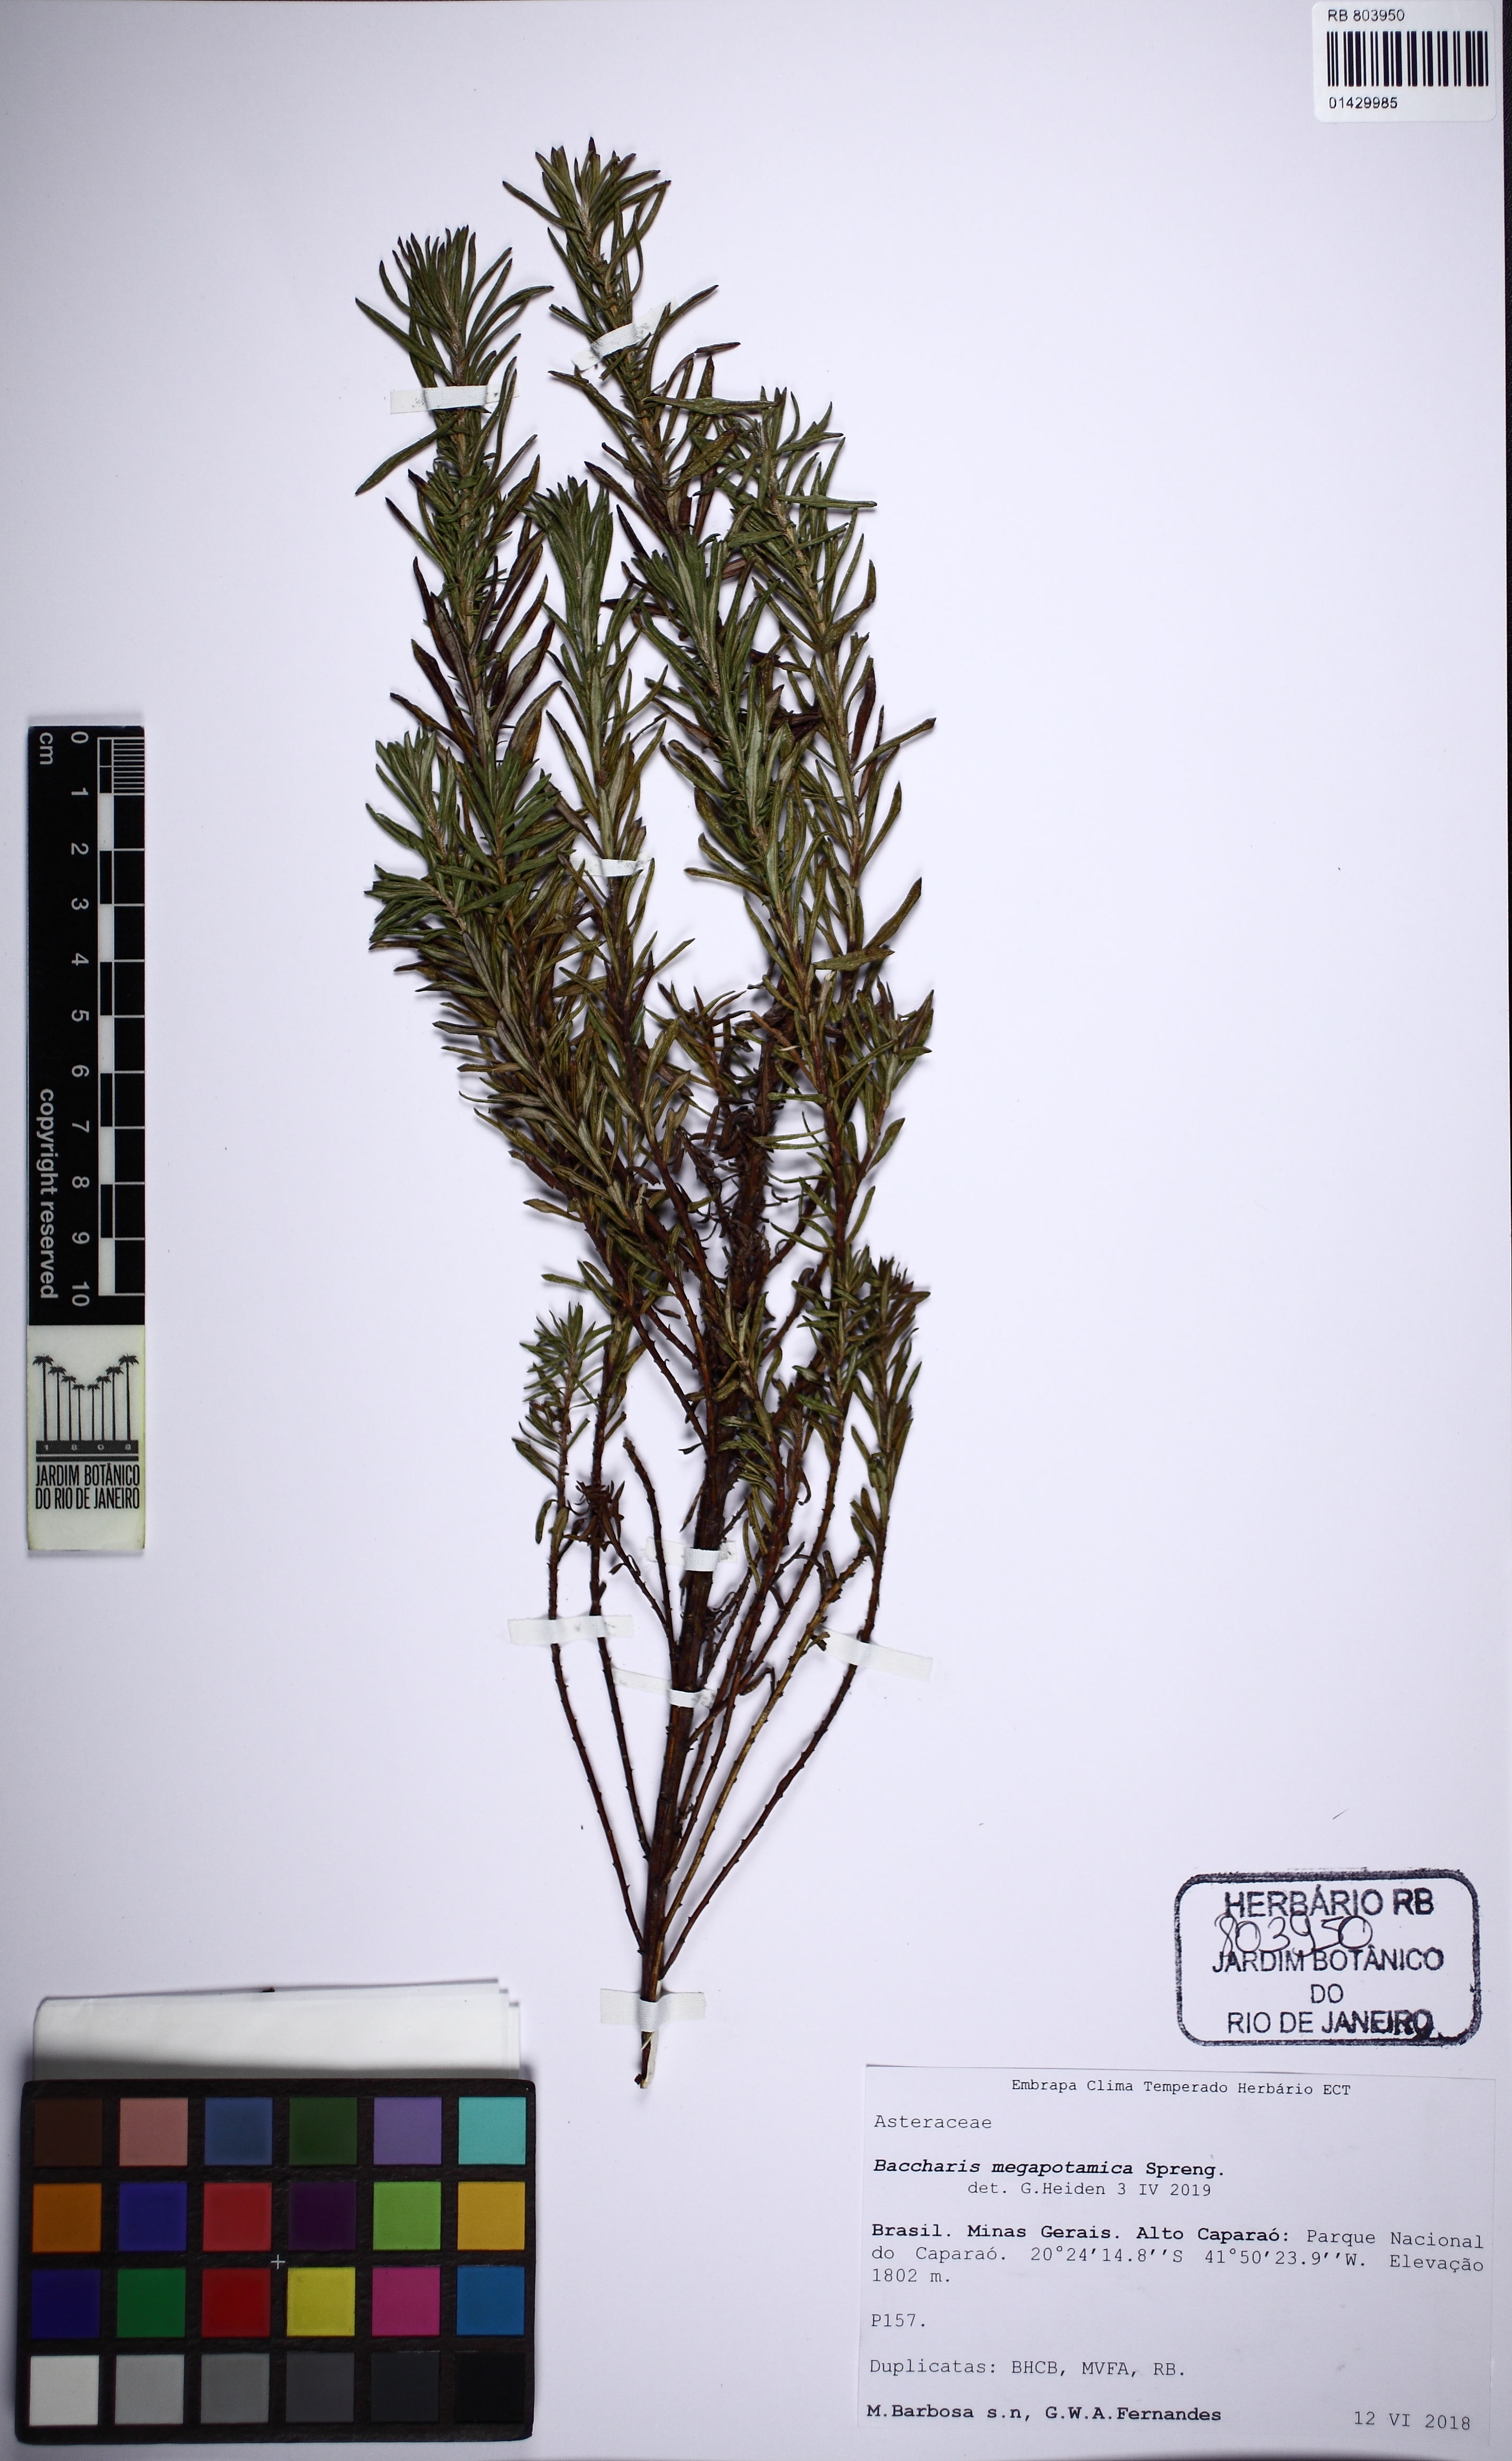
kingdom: Plantae
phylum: Tracheophyta
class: Magnoliopsida
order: Asterales
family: Asteraceae
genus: Baccharis
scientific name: Baccharis megapotamica
